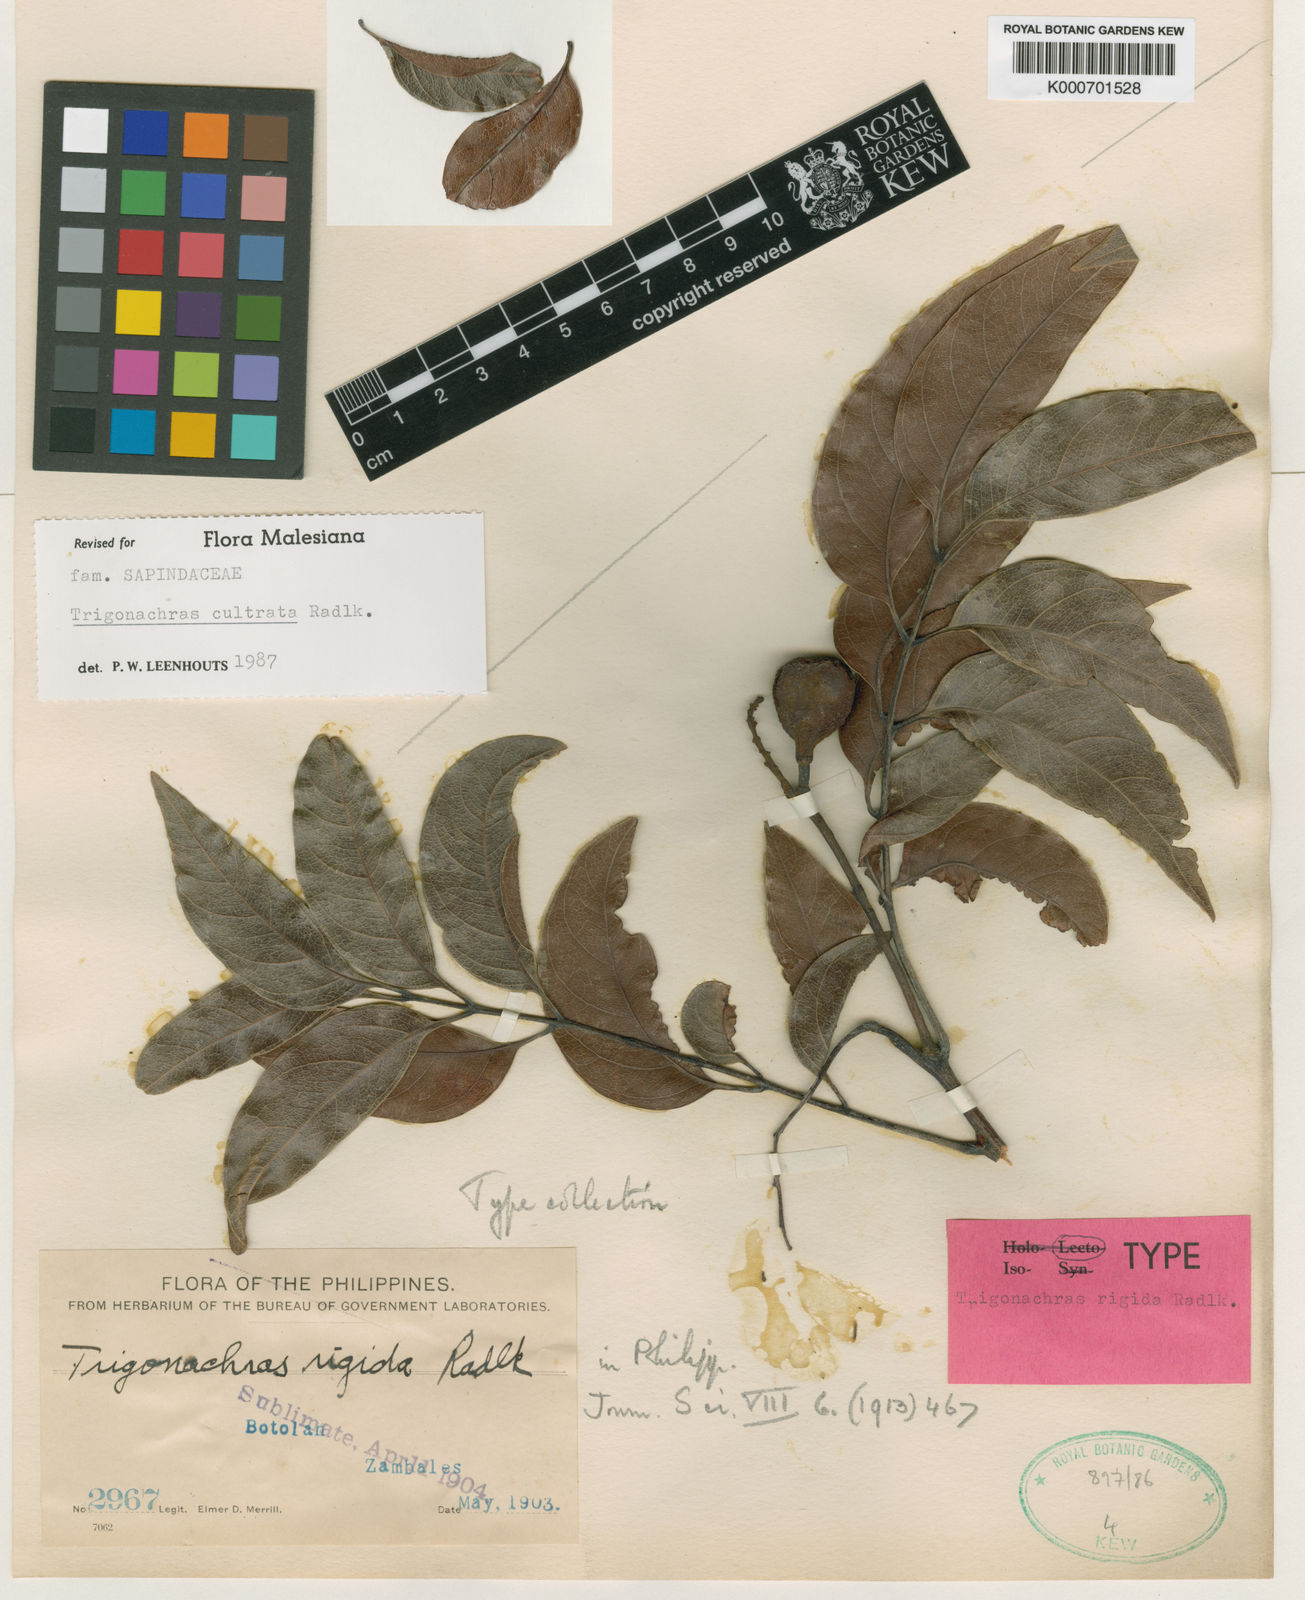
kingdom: Plantae
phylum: Tracheophyta
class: Magnoliopsida
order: Sapindales
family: Sapindaceae
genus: Trigonachras
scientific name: Trigonachras cultrata
